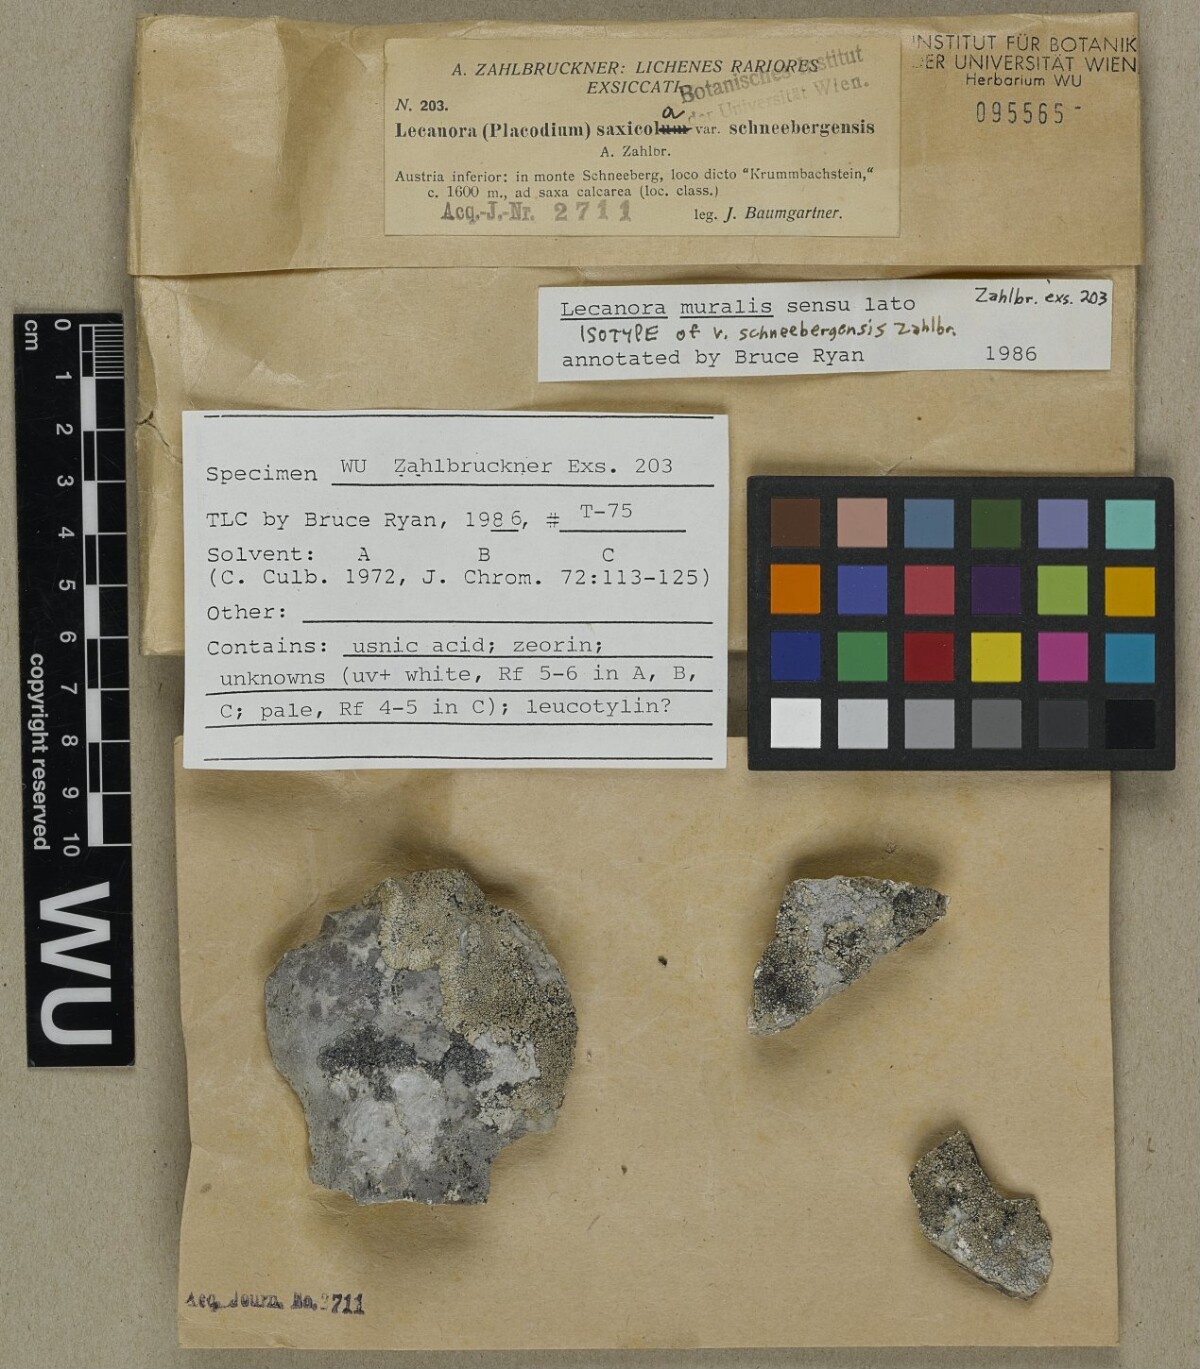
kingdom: Fungi
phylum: Ascomycota
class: Lecanoromycetes
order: Lecanorales
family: Lecanoraceae
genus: Protoparmeliopsis
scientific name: Protoparmeliopsis muralis
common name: Stonewall rim lichen
